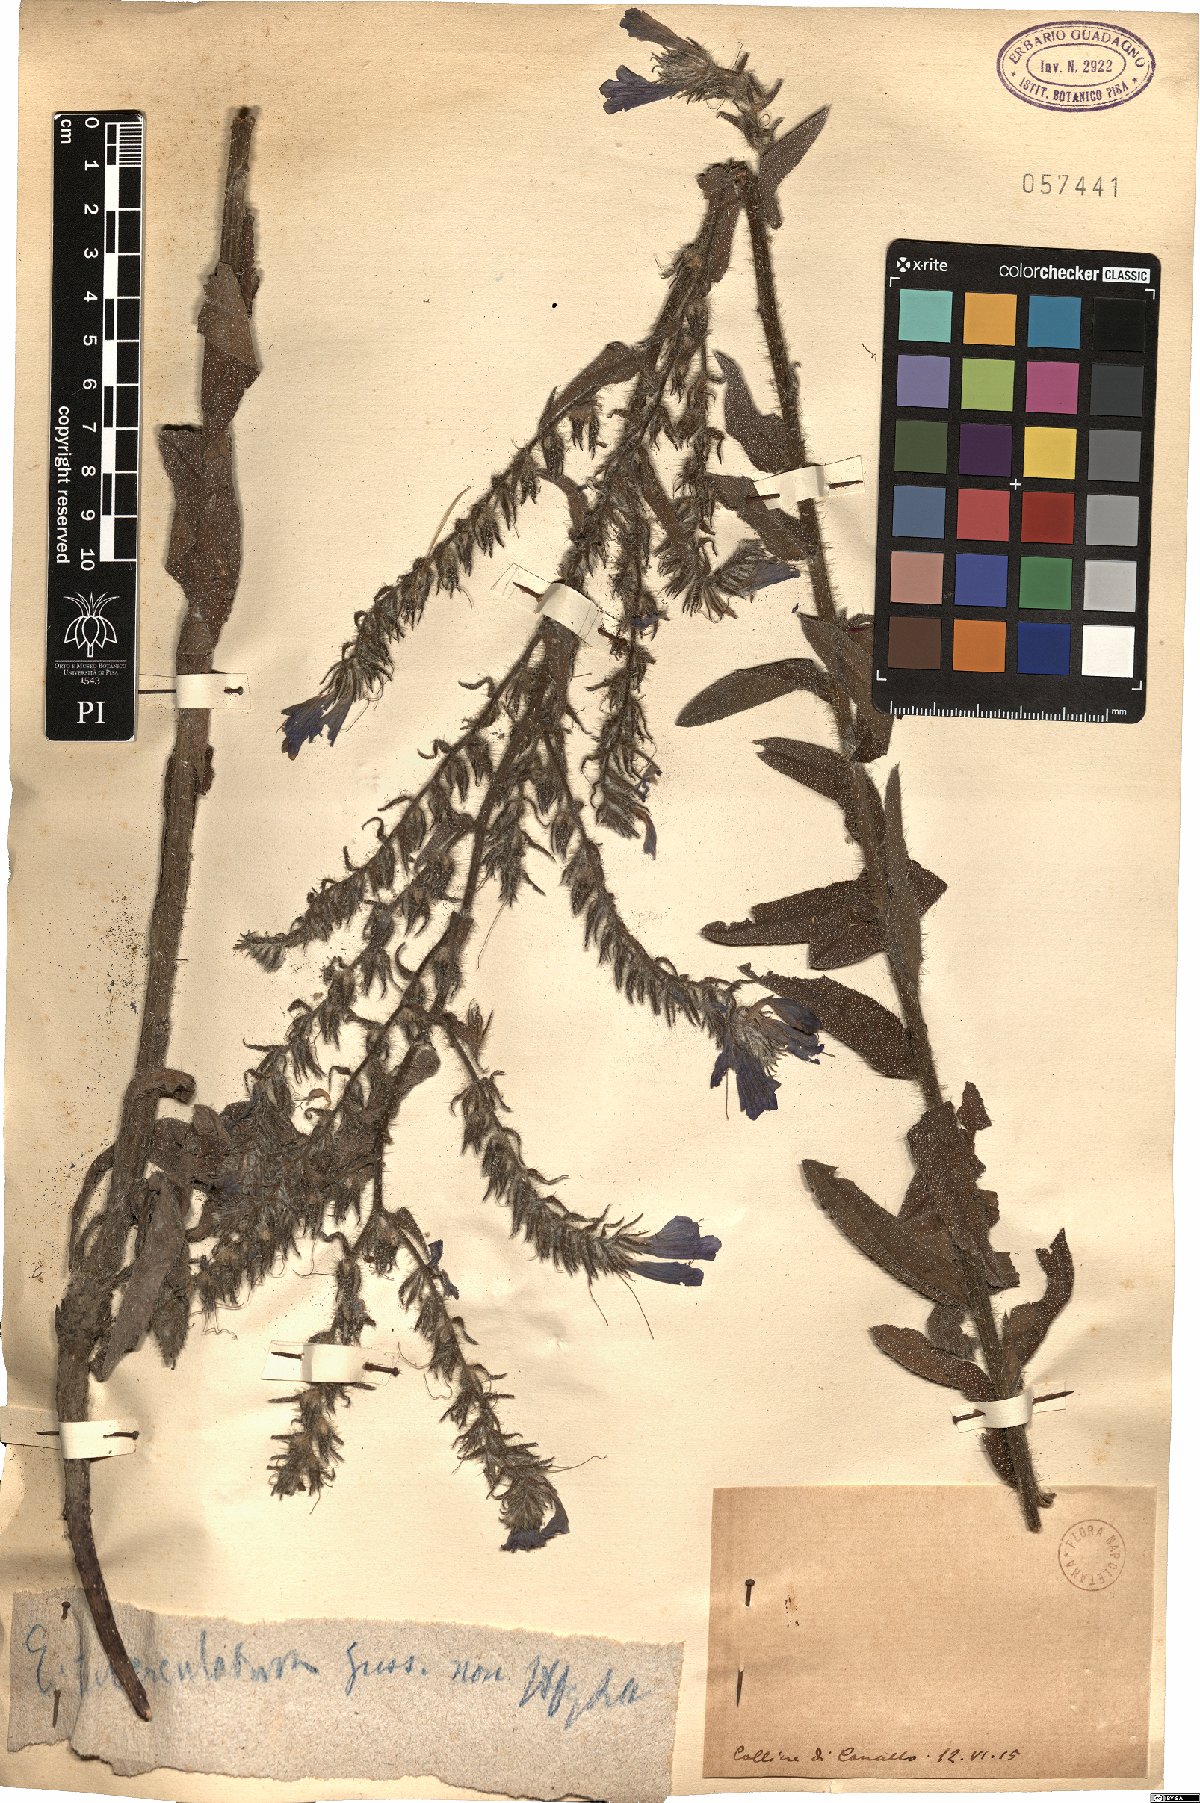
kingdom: Plantae
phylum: Tracheophyta
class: Magnoliopsida
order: Boraginales
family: Boraginaceae
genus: Echium
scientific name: Echium tuberculatum
